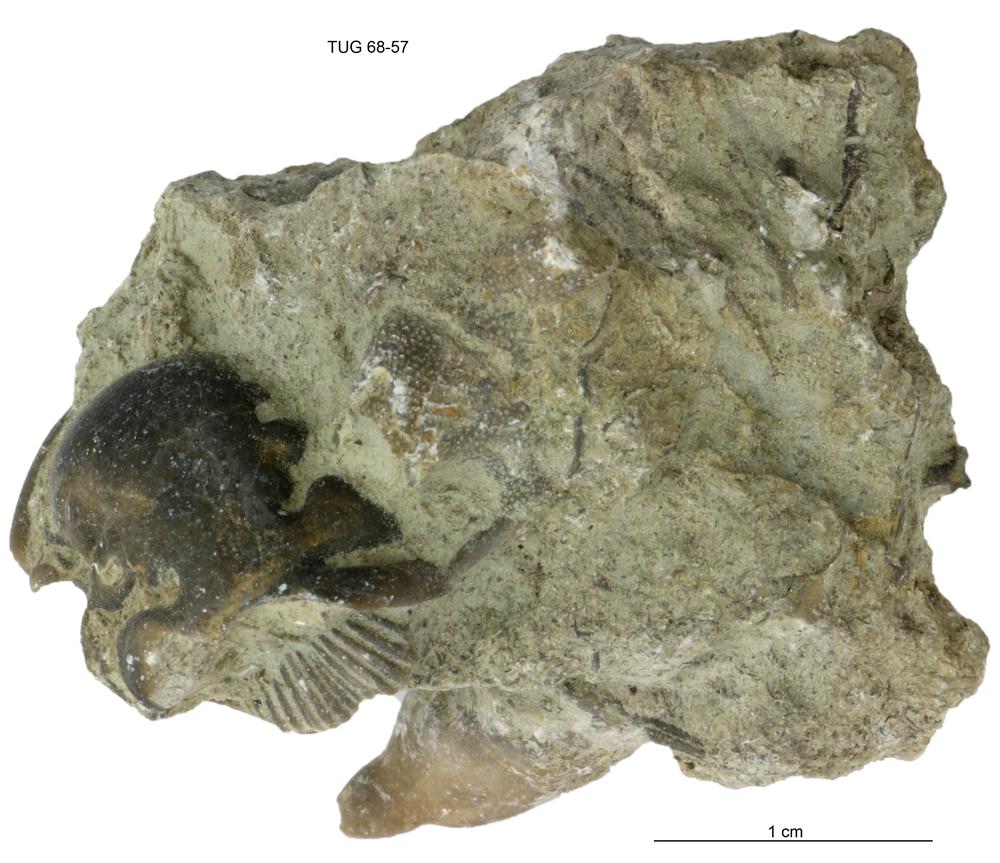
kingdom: Animalia
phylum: Bryozoa
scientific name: Bryozoa
